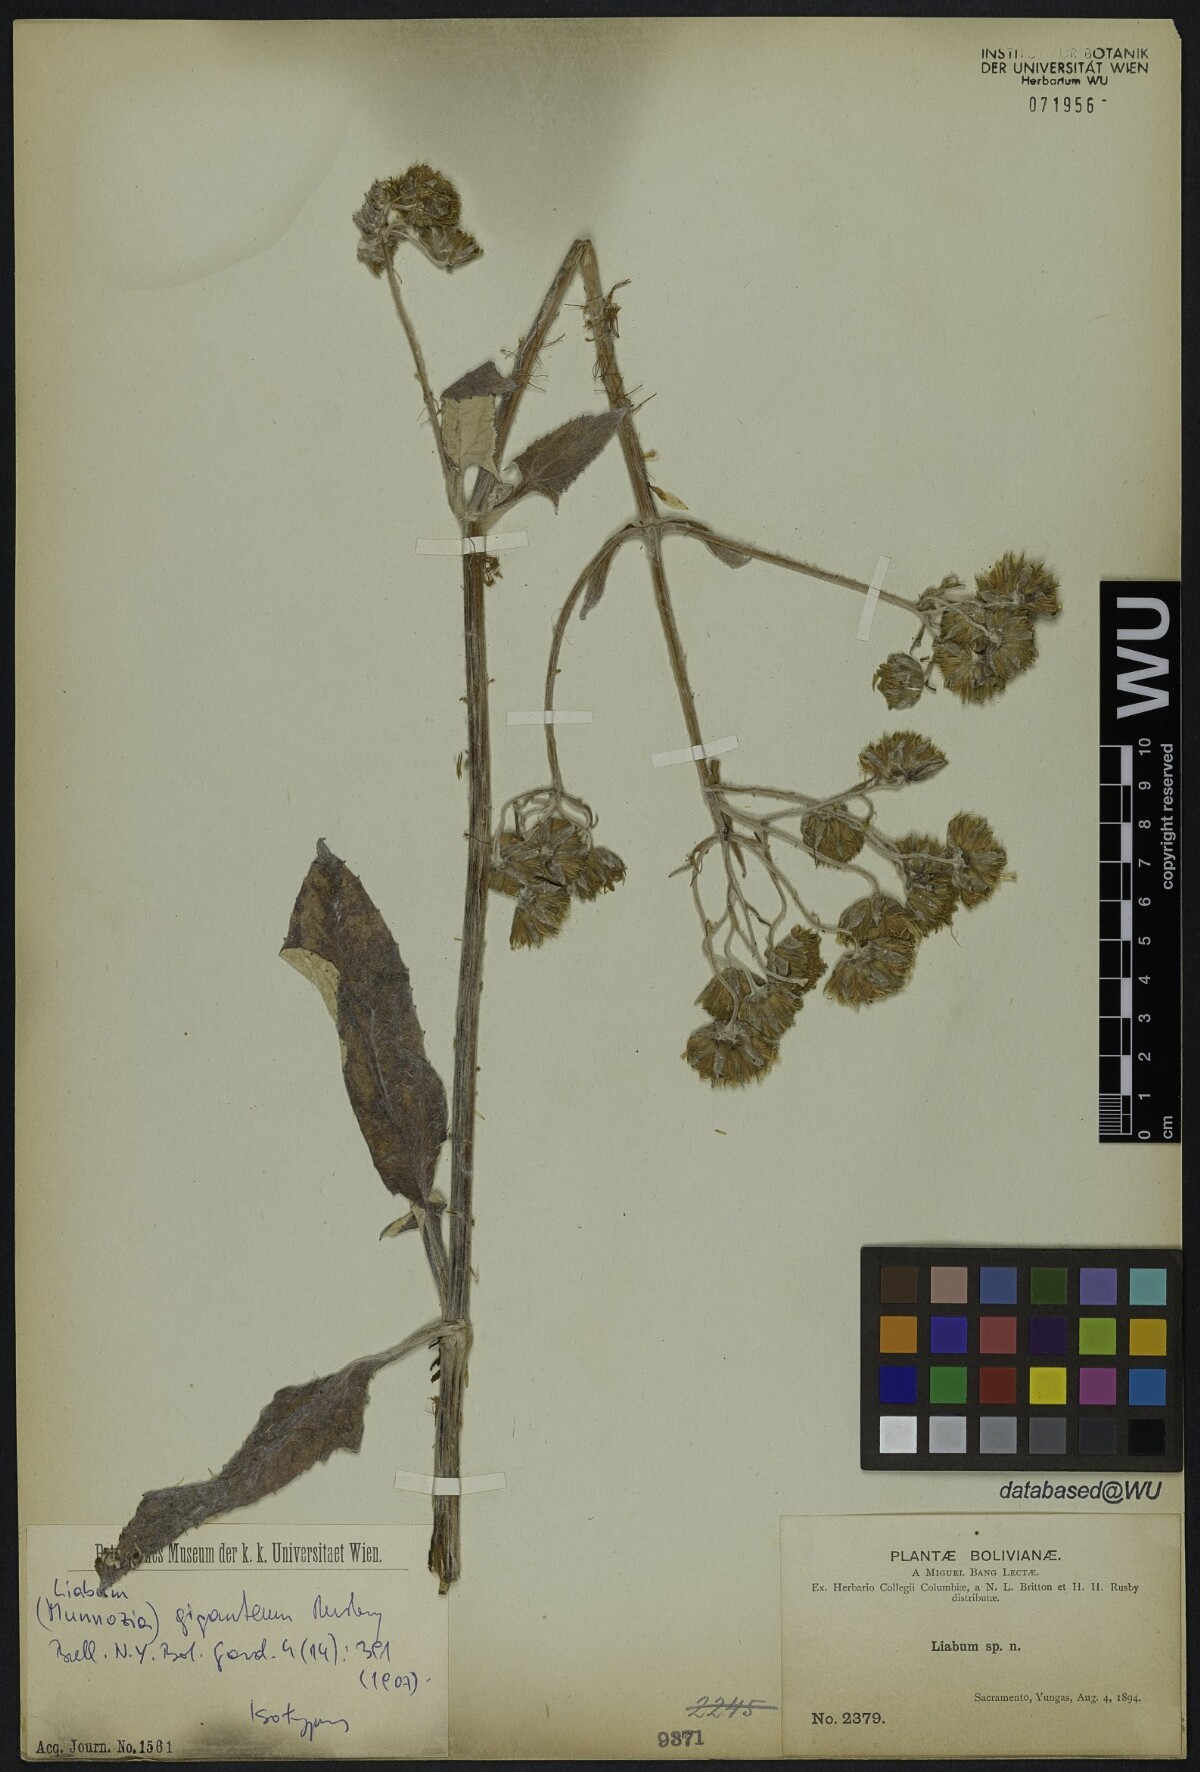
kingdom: Plantae
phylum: Tracheophyta
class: Magnoliopsida
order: Asterales
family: Asteraceae
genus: Munnozia
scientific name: Munnozia gigantea
